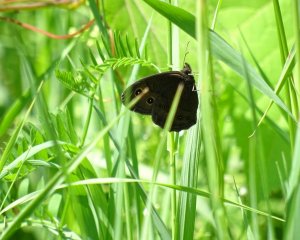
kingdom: Animalia
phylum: Arthropoda
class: Insecta
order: Lepidoptera
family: Nymphalidae
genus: Cercyonis
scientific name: Cercyonis pegala
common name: Common Wood-Nymph
